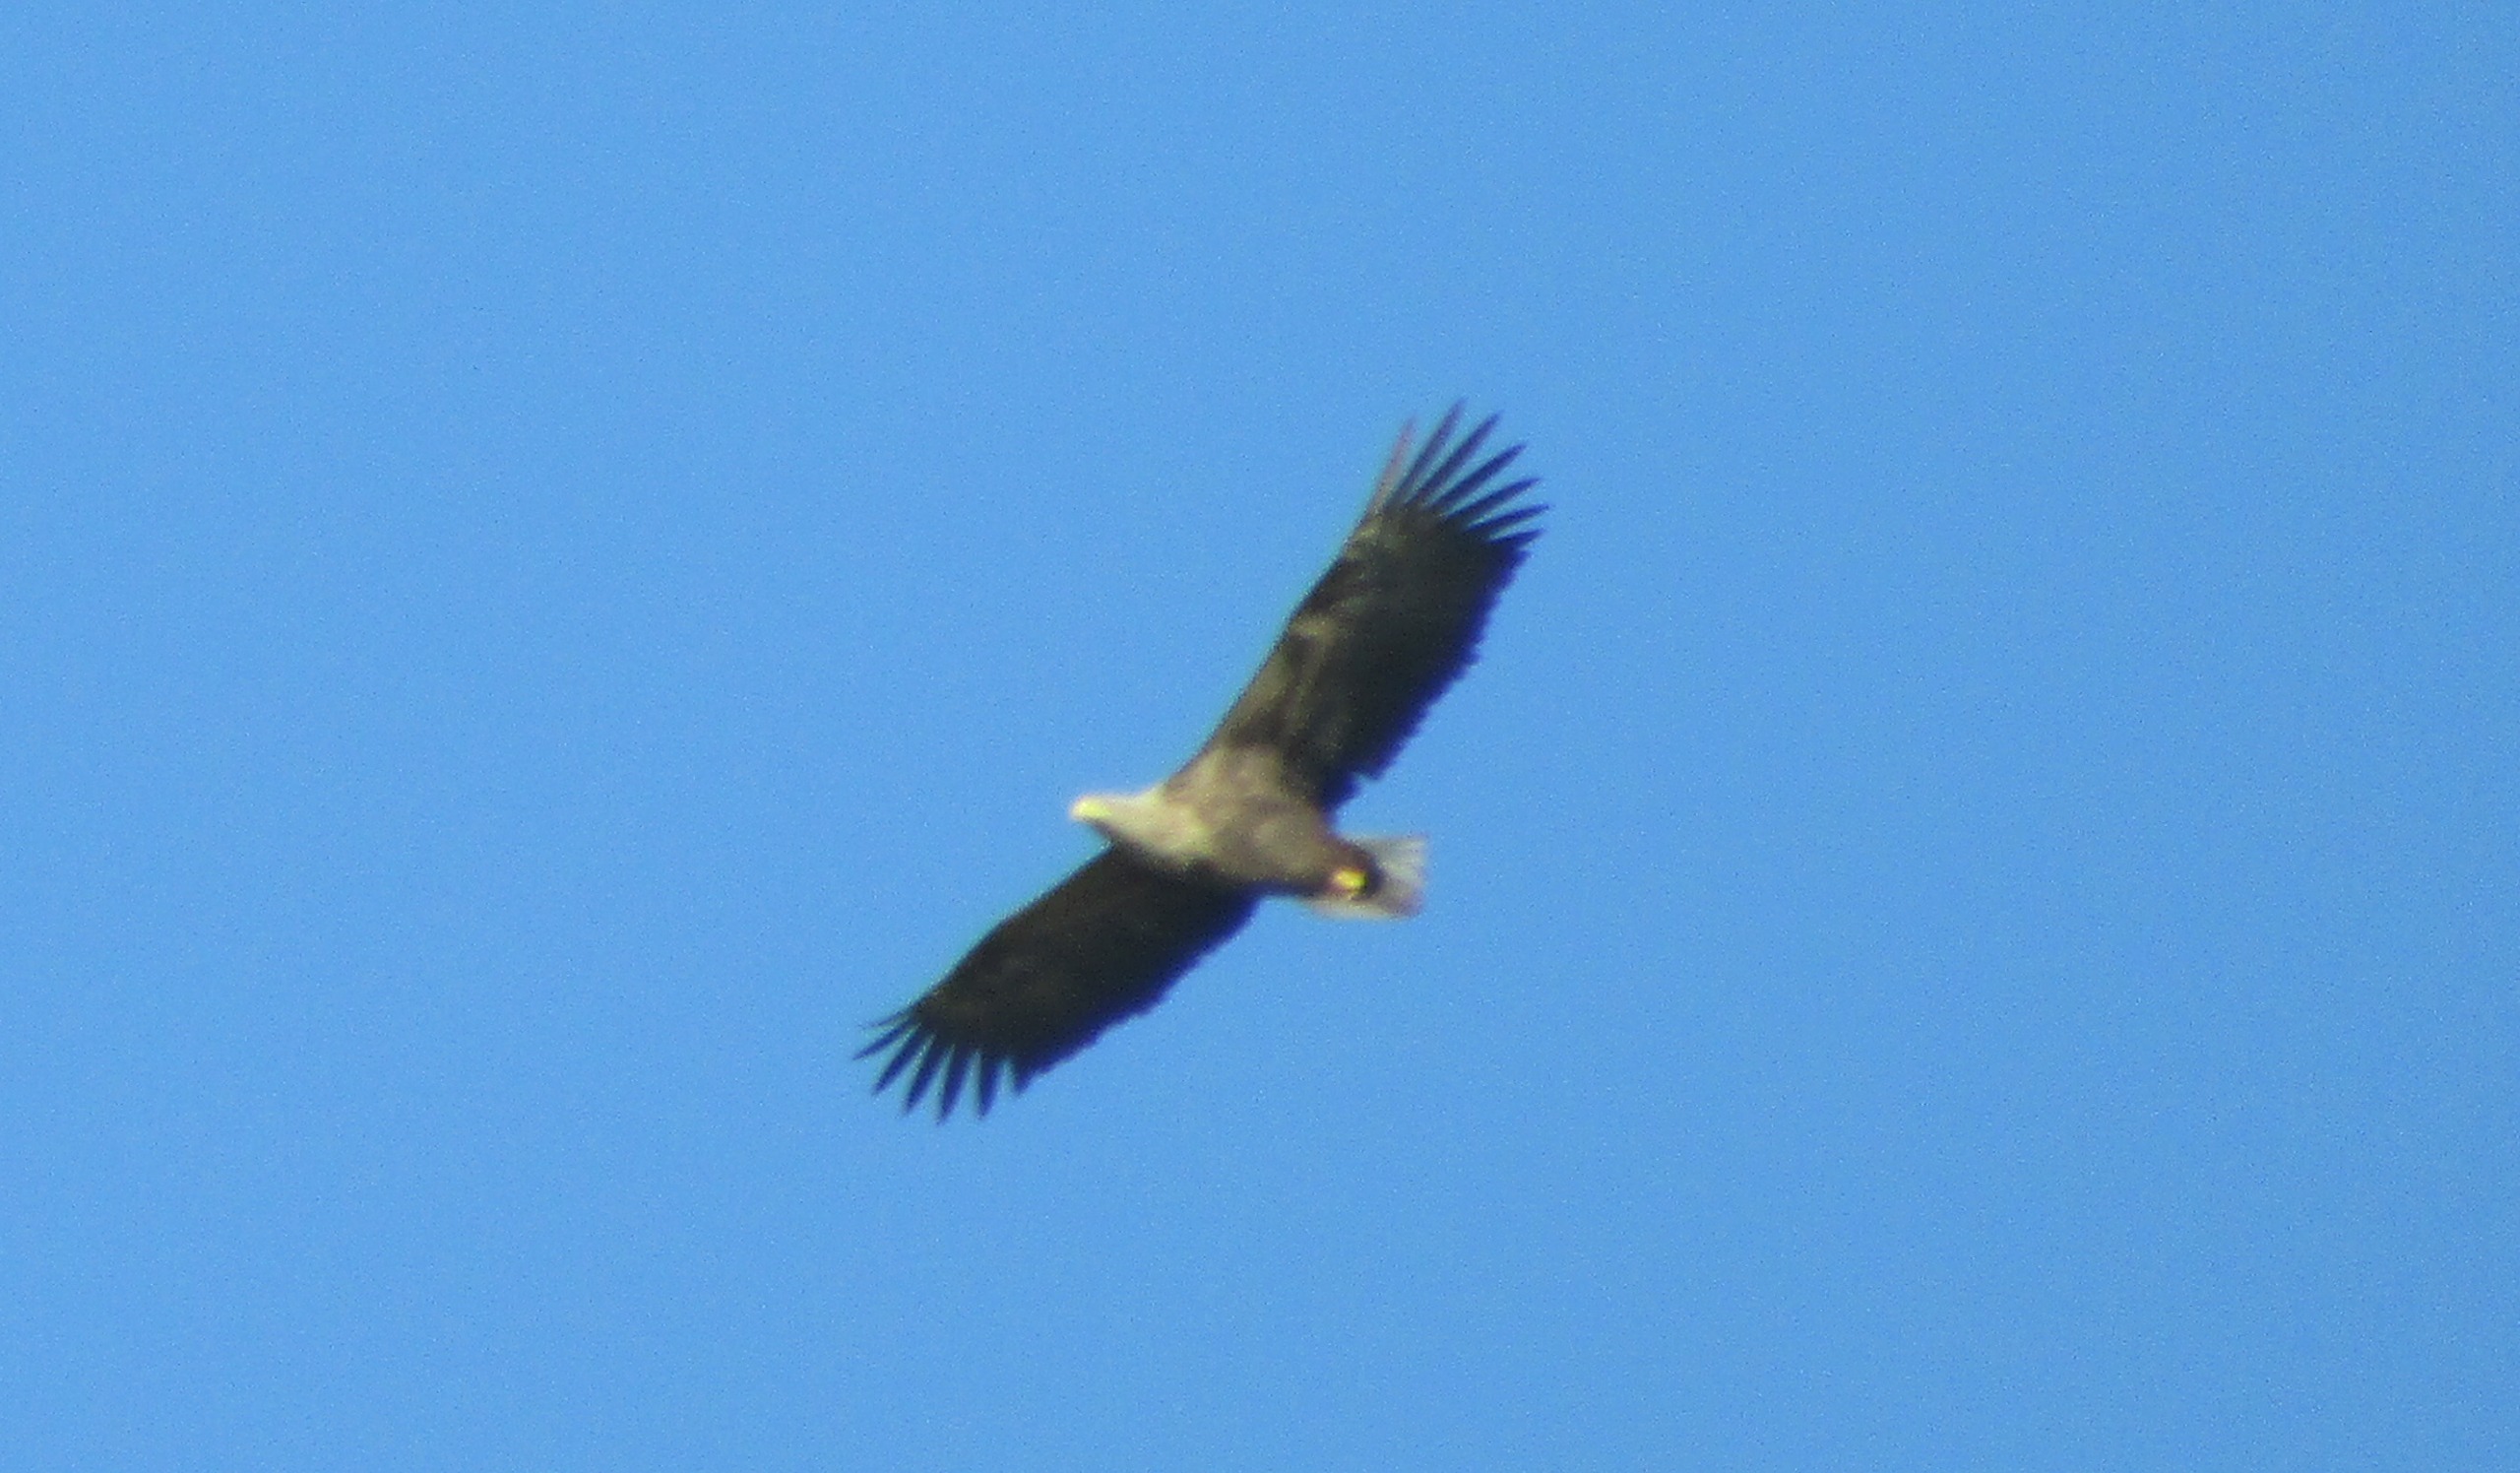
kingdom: Animalia
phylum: Chordata
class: Aves
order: Accipitriformes
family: Accipitridae
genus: Haliaeetus
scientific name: Haliaeetus albicilla
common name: Havørn
